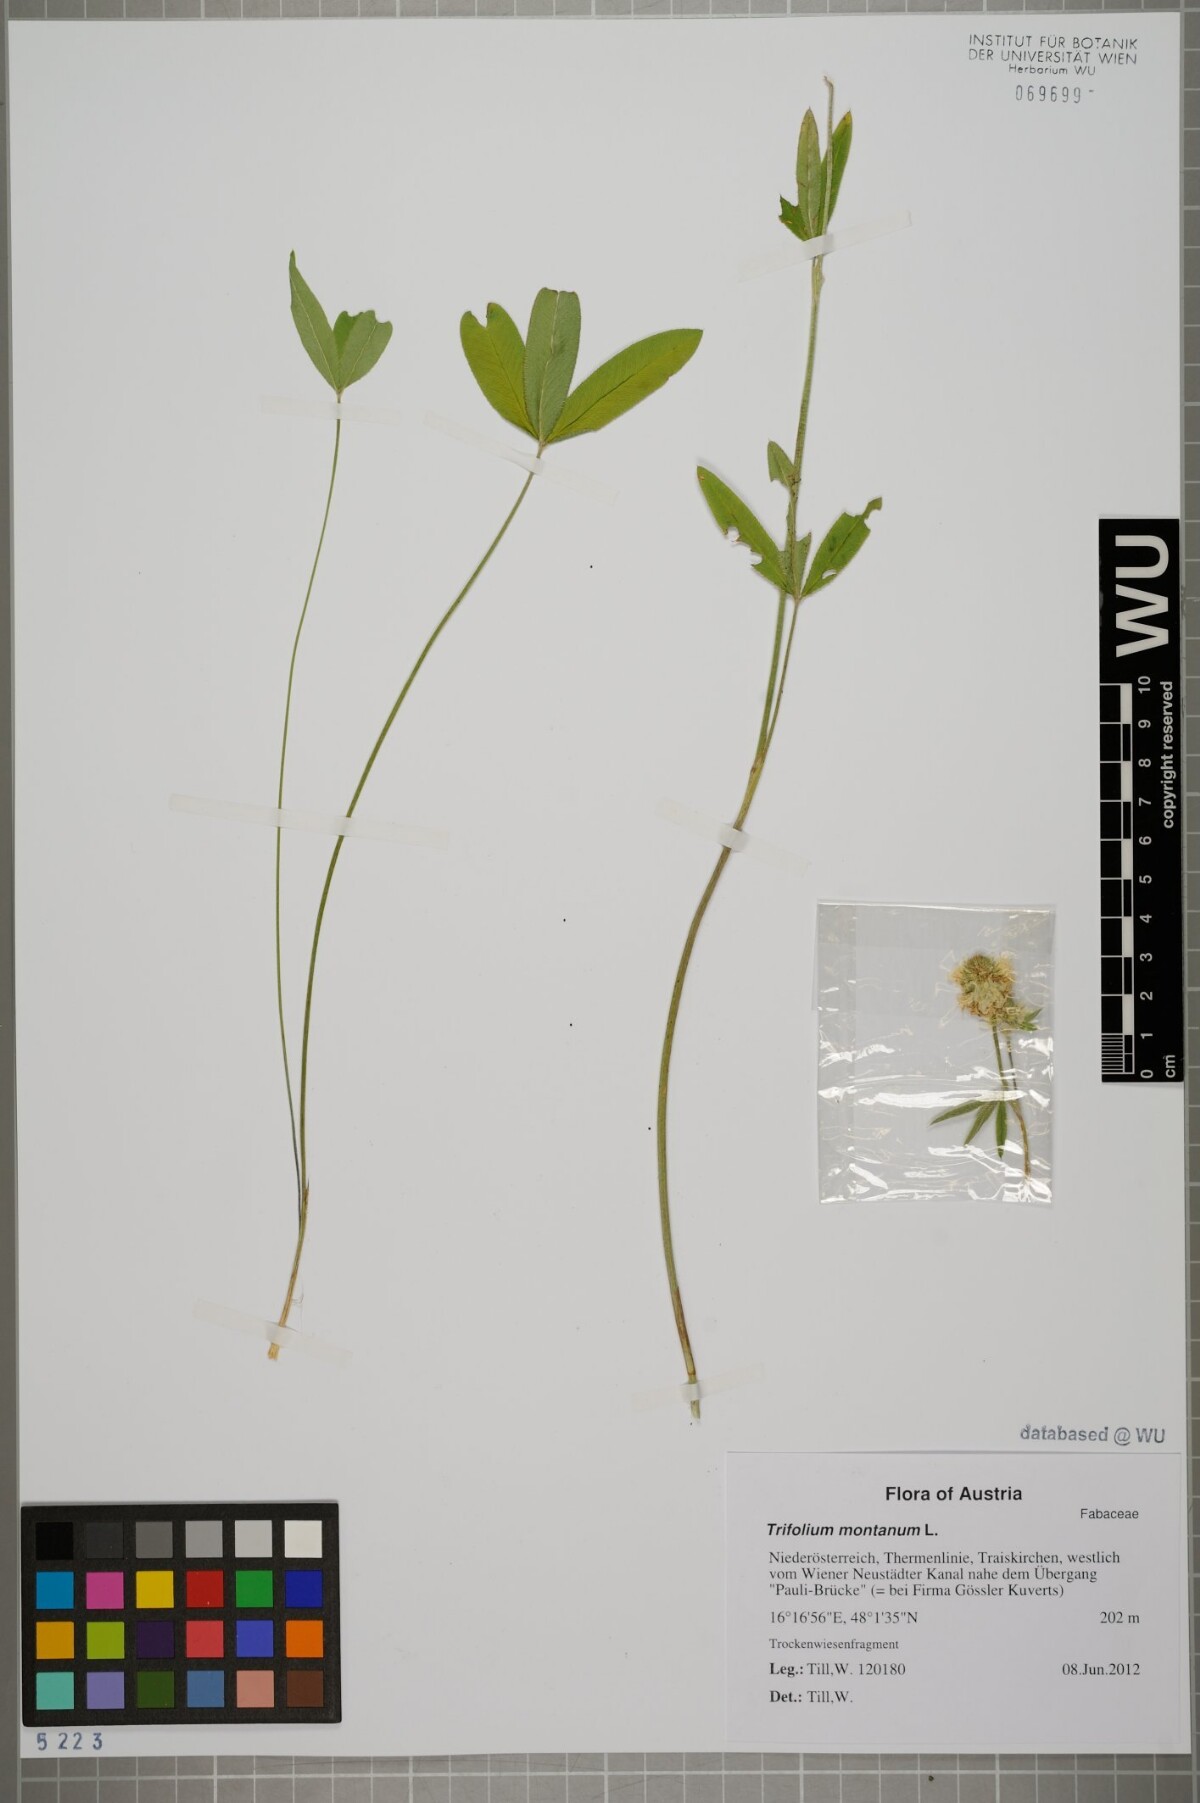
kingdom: Plantae
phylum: Tracheophyta
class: Magnoliopsida
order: Fabales
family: Fabaceae
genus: Trifolium
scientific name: Trifolium montanum
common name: Mountain clover
